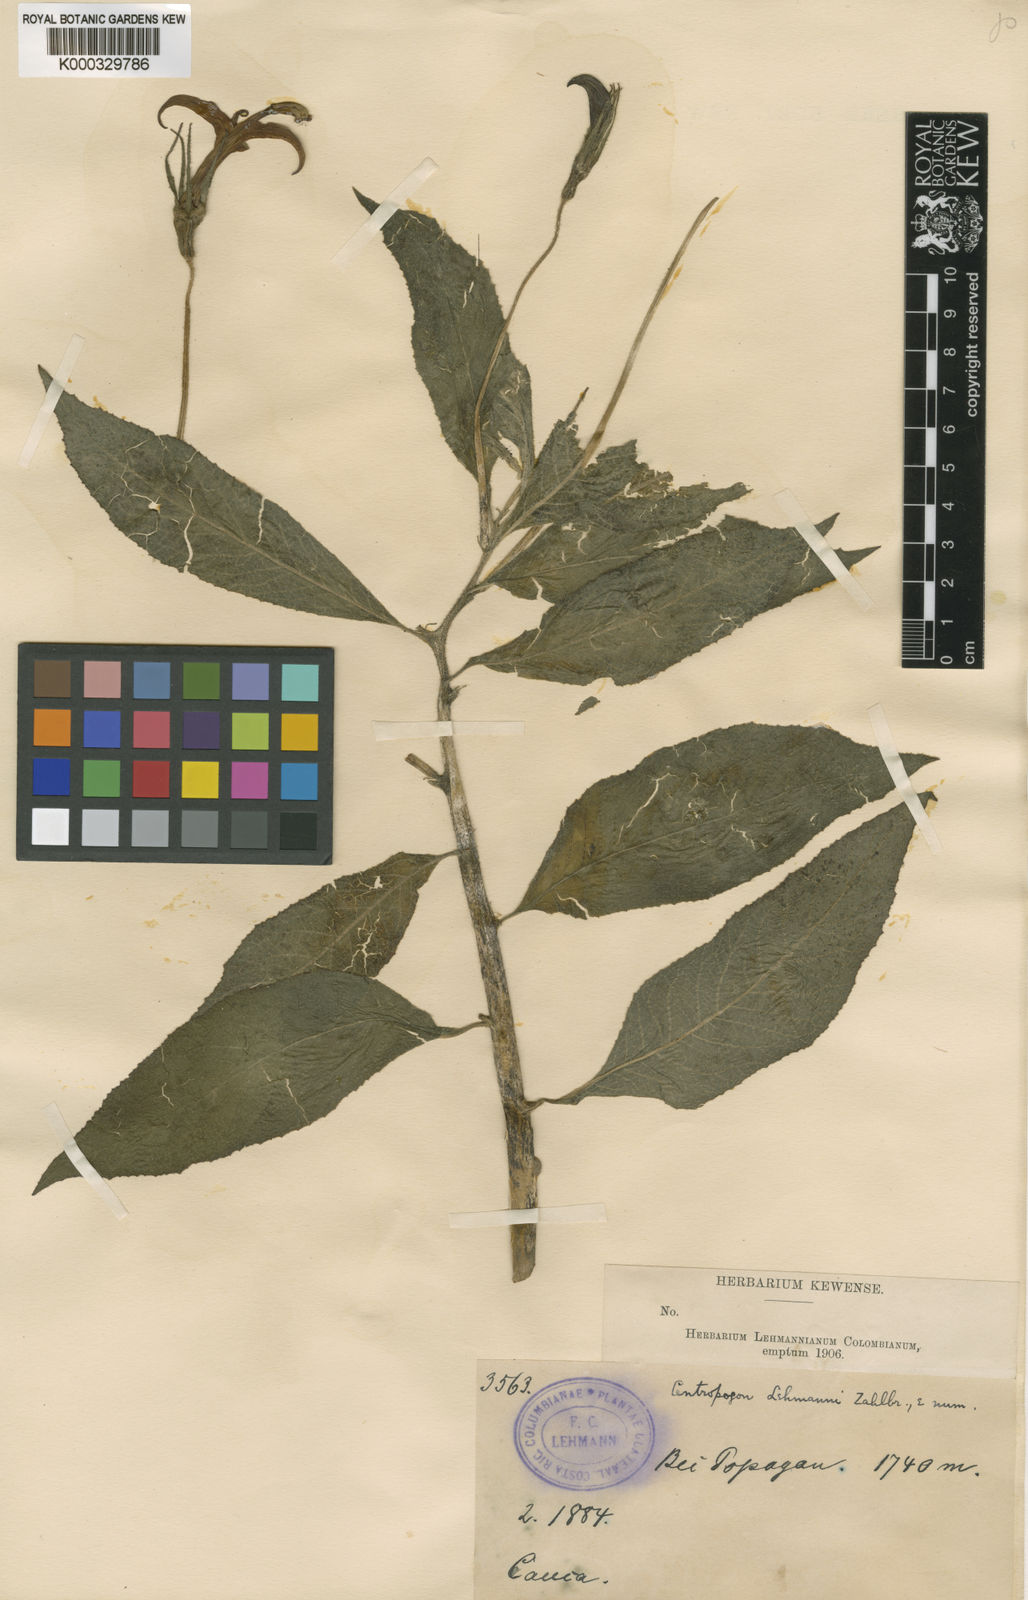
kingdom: Plantae
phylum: Tracheophyta
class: Magnoliopsida
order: Asterales
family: Campanulaceae
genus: Centropogon
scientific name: Centropogon lehmannii
